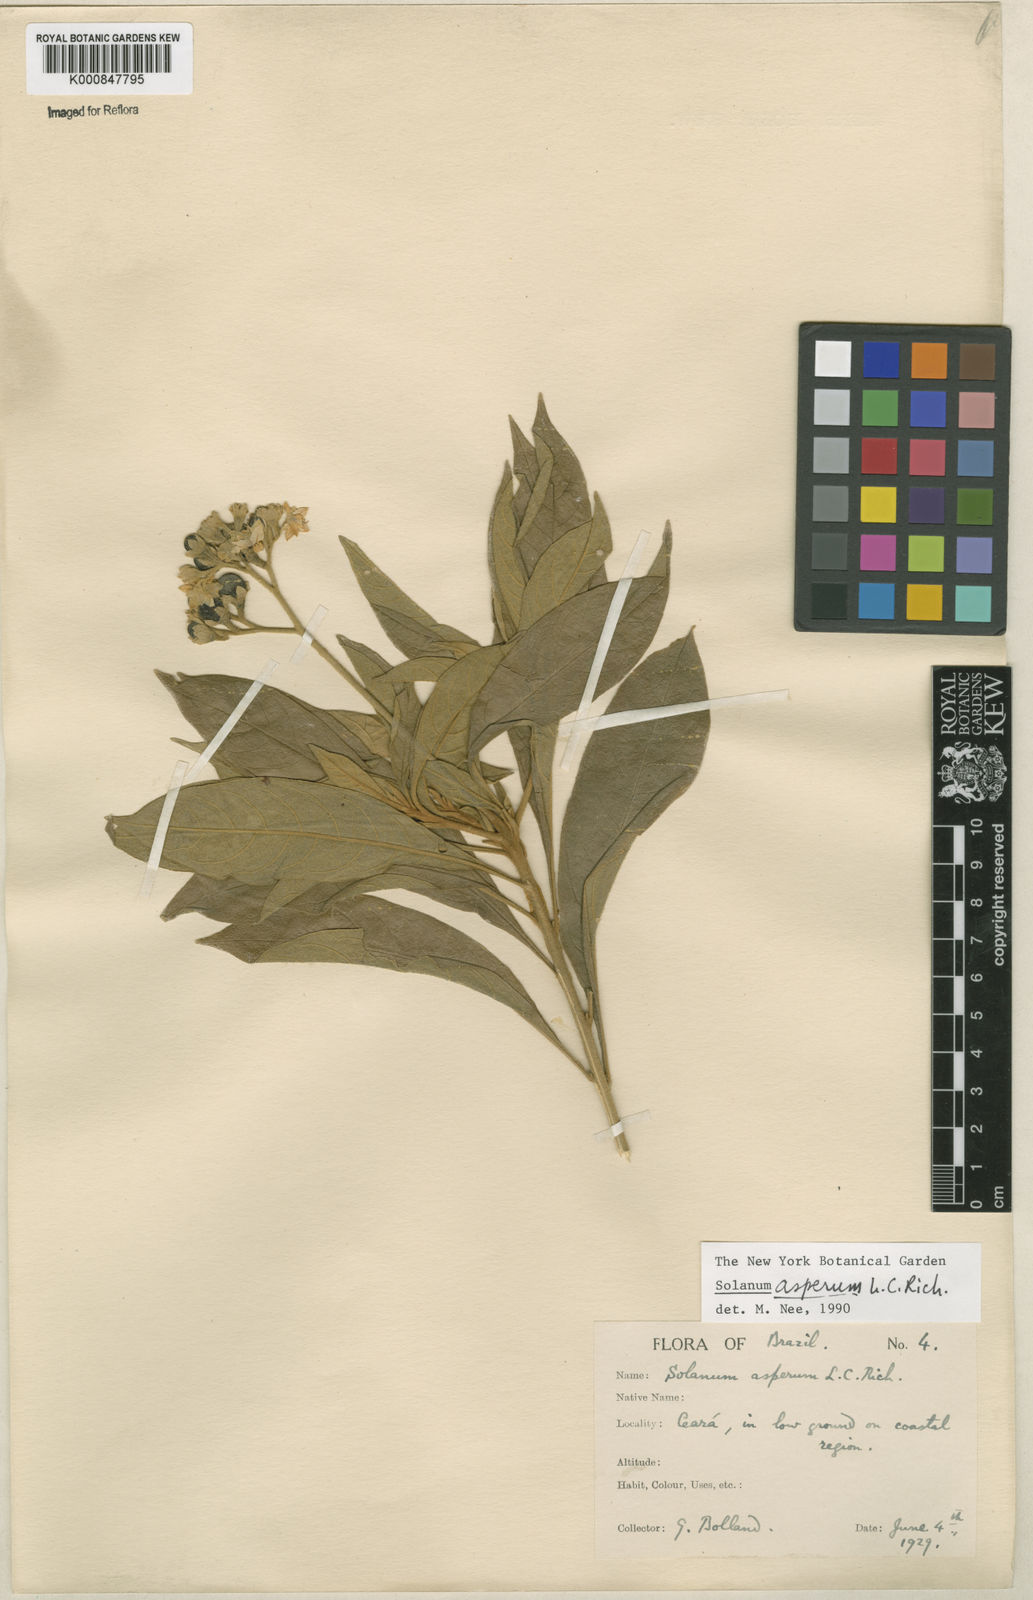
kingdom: Plantae
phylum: Tracheophyta
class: Magnoliopsida
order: Solanales
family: Solanaceae
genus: Solanum
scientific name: Solanum asperum
